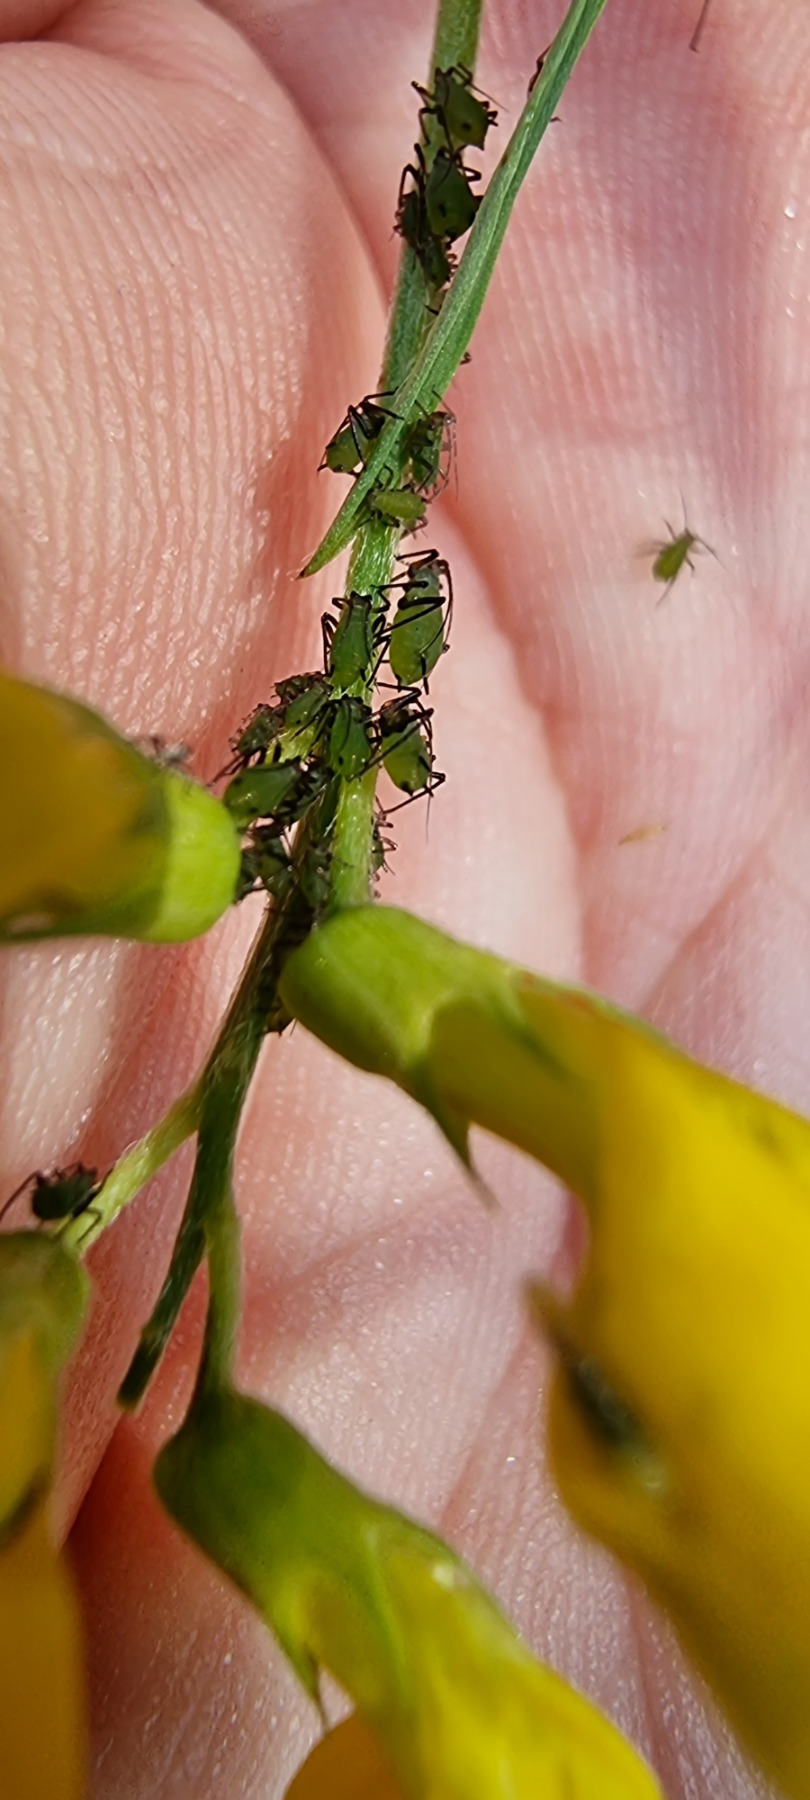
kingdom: Animalia
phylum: Arthropoda
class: Insecta
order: Hemiptera
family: Aphididae
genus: Megoura
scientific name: Megoura viciae
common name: Vikkebladlus
